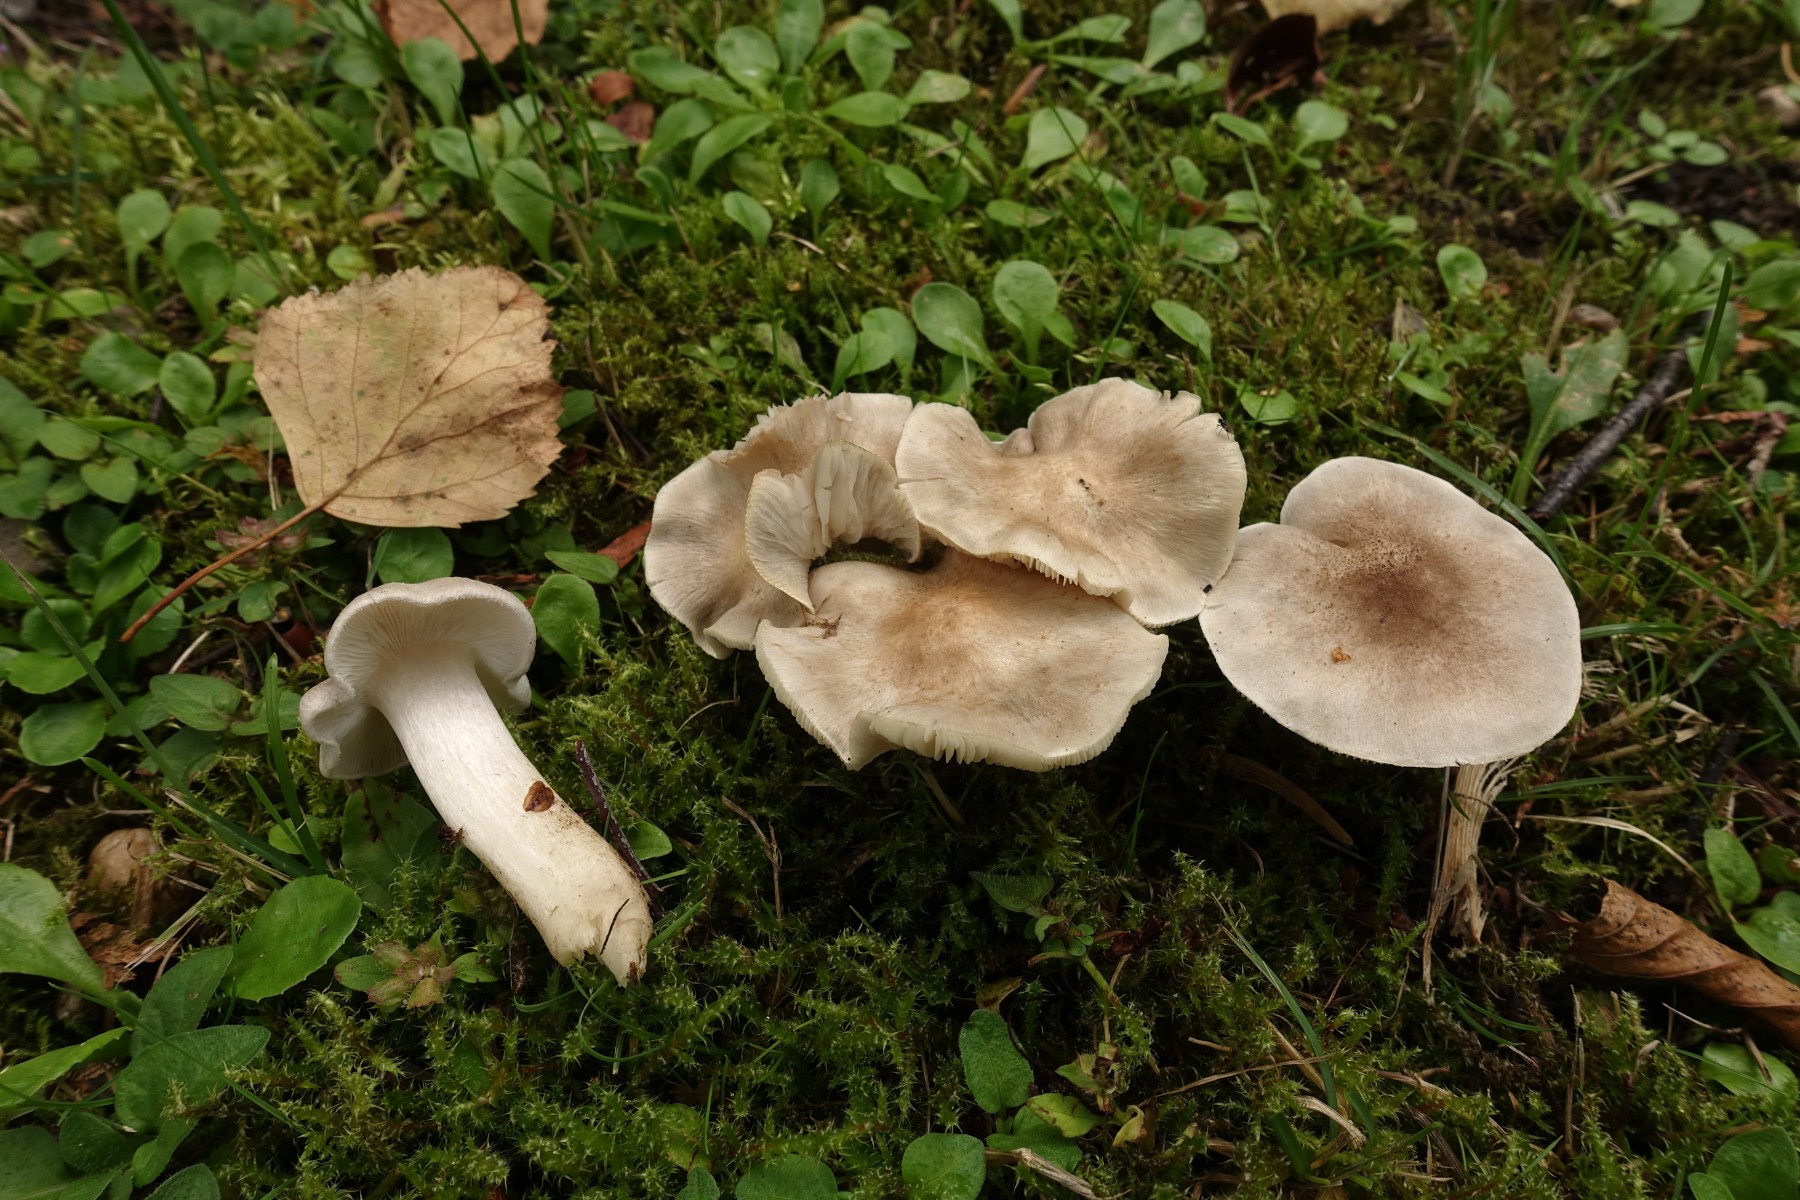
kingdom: Fungi
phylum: Basidiomycota
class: Agaricomycetes
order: Agaricales
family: Tricholomataceae
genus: Tricholoma
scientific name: Tricholoma argyraceum
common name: spids ridderhat
